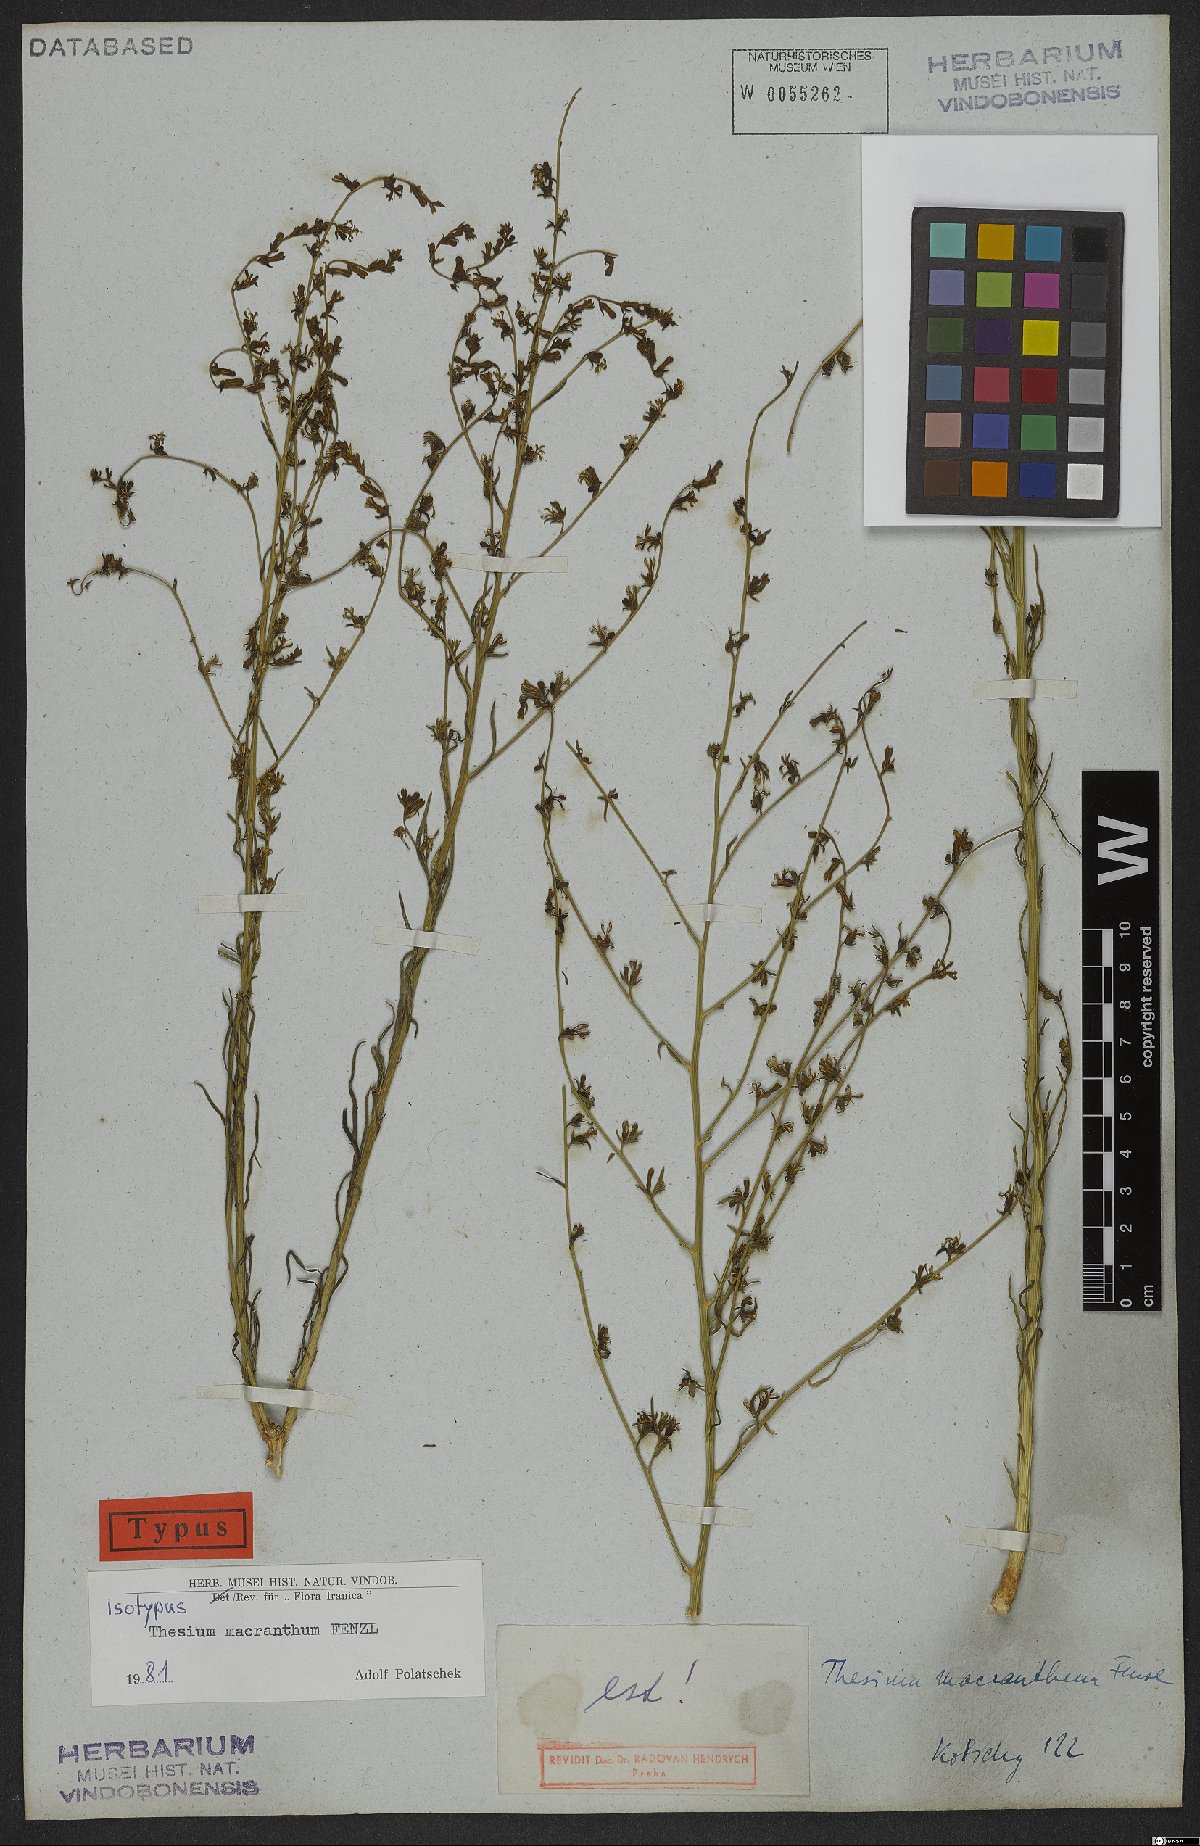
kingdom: Plantae
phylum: Tracheophyta
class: Magnoliopsida
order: Santalales
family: Thesiaceae
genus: Thesium
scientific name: Thesium macranthum
